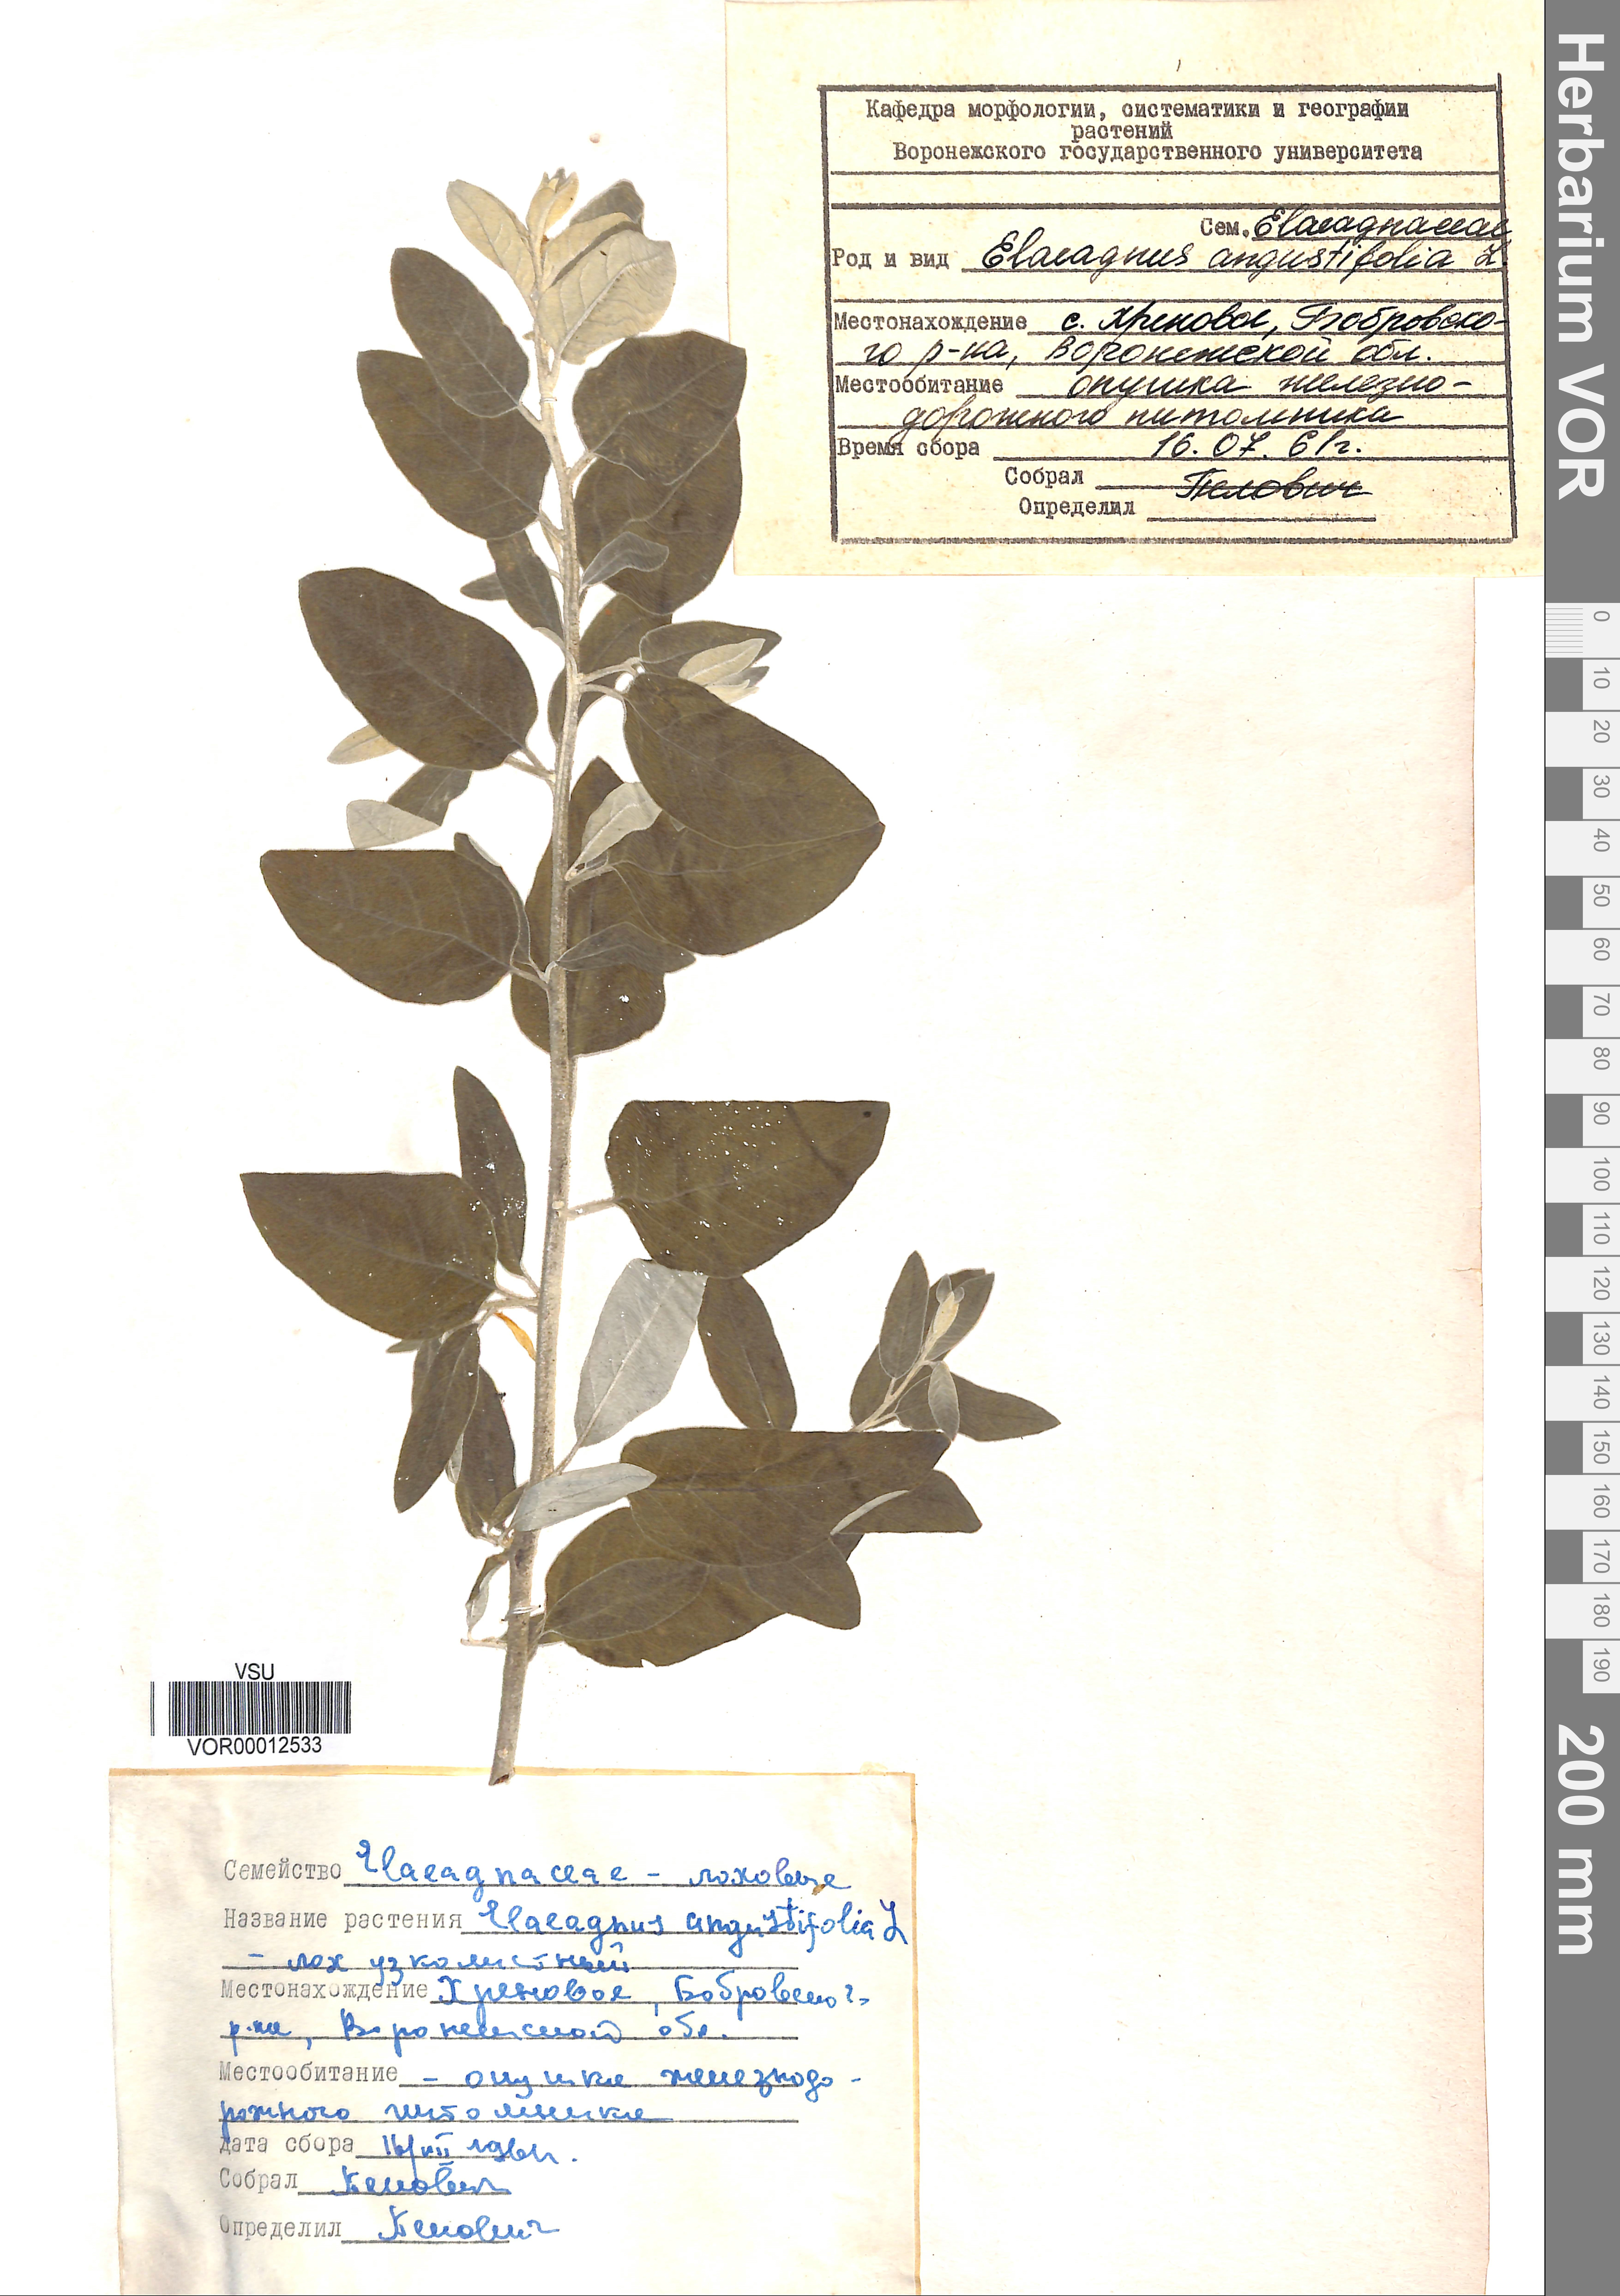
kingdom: Plantae
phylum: Tracheophyta
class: Magnoliopsida
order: Rosales
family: Elaeagnaceae
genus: Elaeagnus
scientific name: Elaeagnus angustifolia
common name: Russian olive
